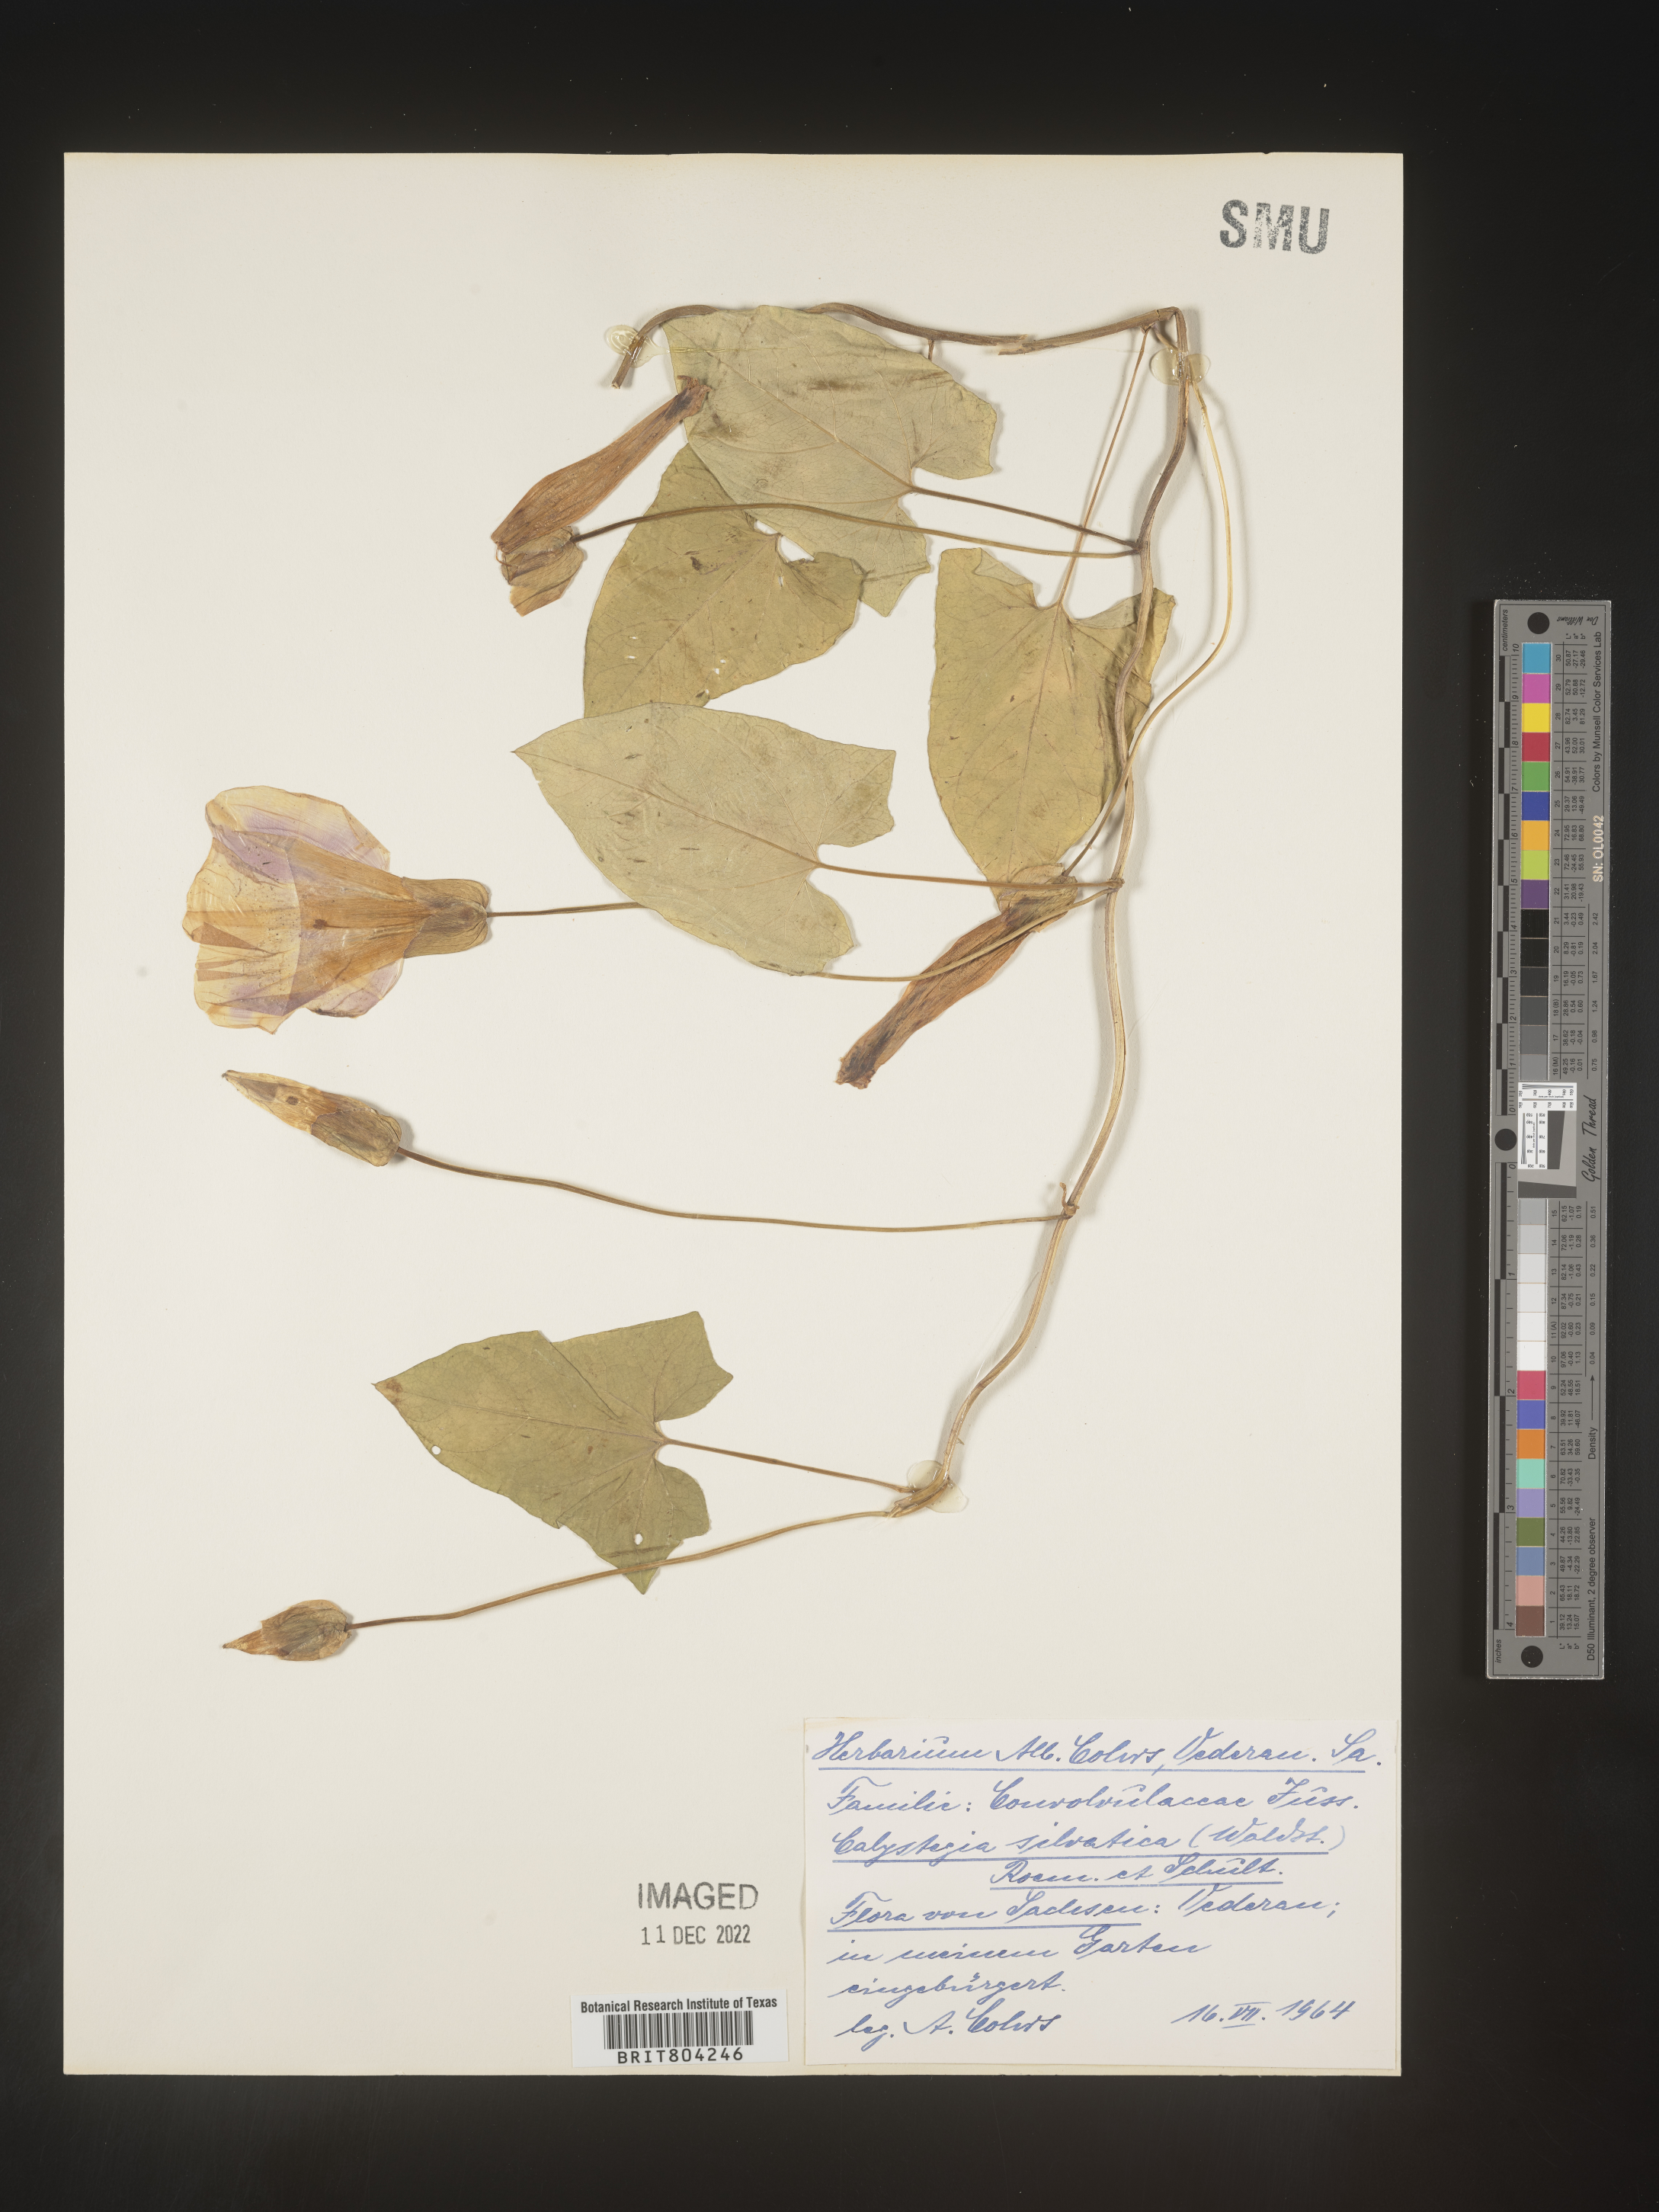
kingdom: Plantae
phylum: Tracheophyta
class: Magnoliopsida
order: Solanales
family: Convolvulaceae
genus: Calystegia
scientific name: Calystegia
